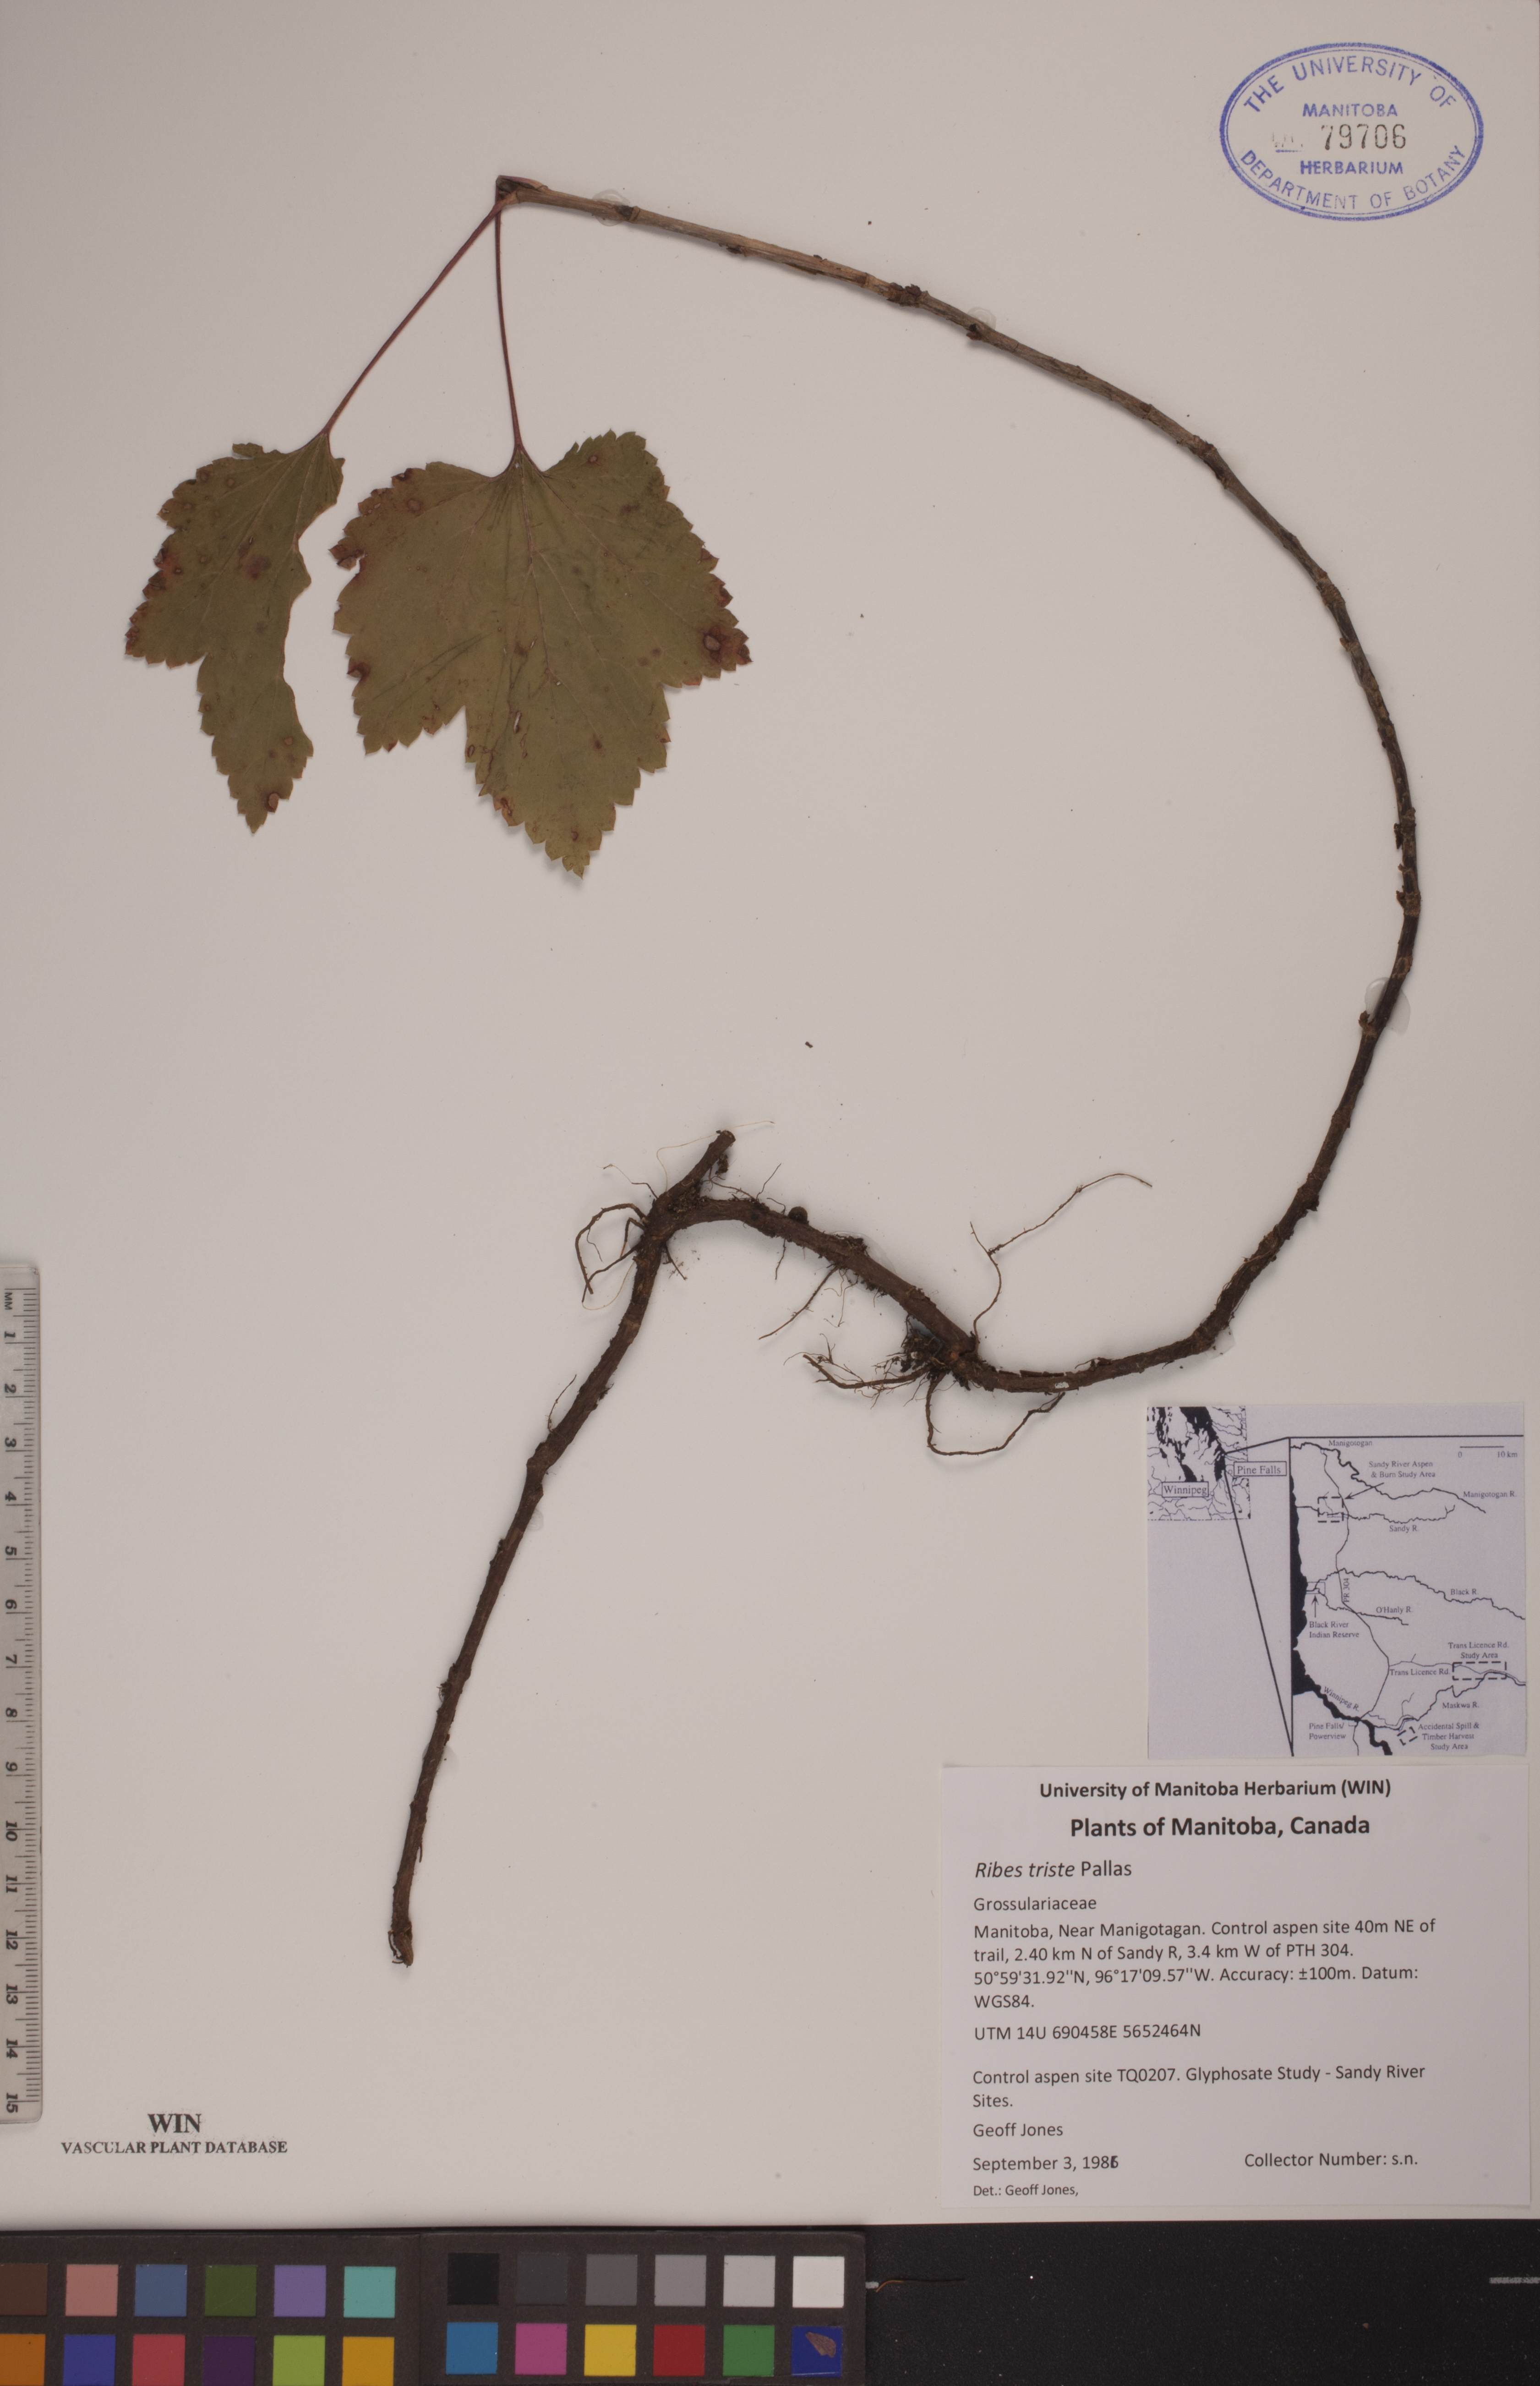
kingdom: Plantae
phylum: Tracheophyta
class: Magnoliopsida
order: Saxifragales
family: Grossulariaceae
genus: Ribes
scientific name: Ribes triste
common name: Swamp red currant
